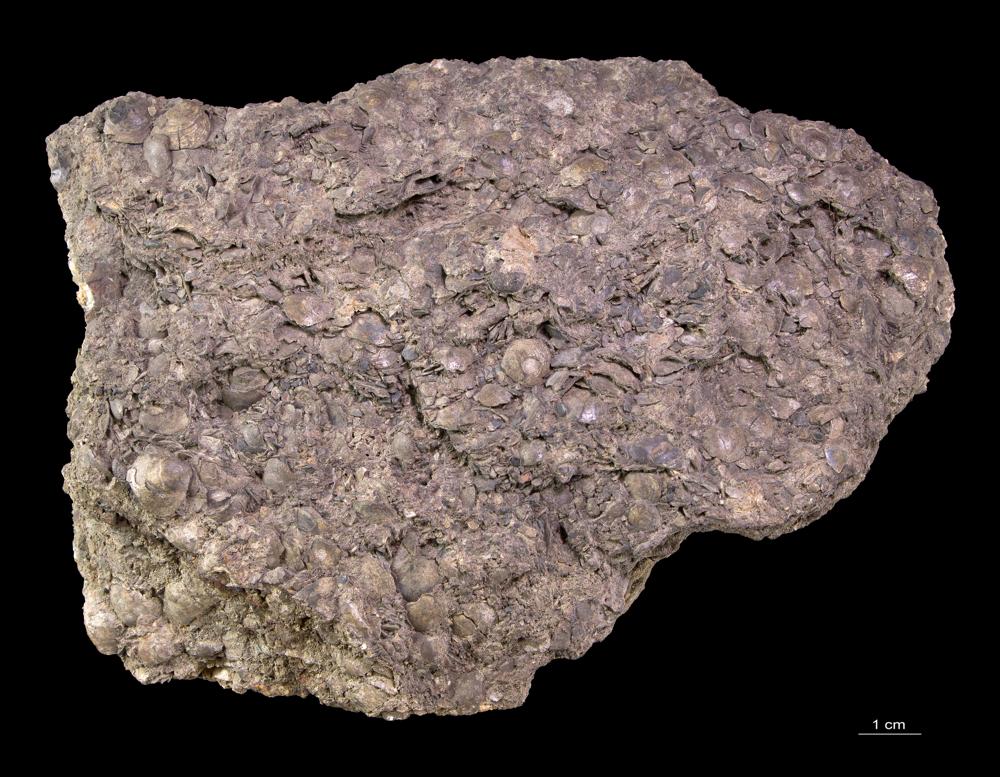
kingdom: Animalia
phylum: Brachiopoda
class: Lingulata
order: Lingulida
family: Obolidae
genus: Obolus
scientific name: Obolus apollinis
